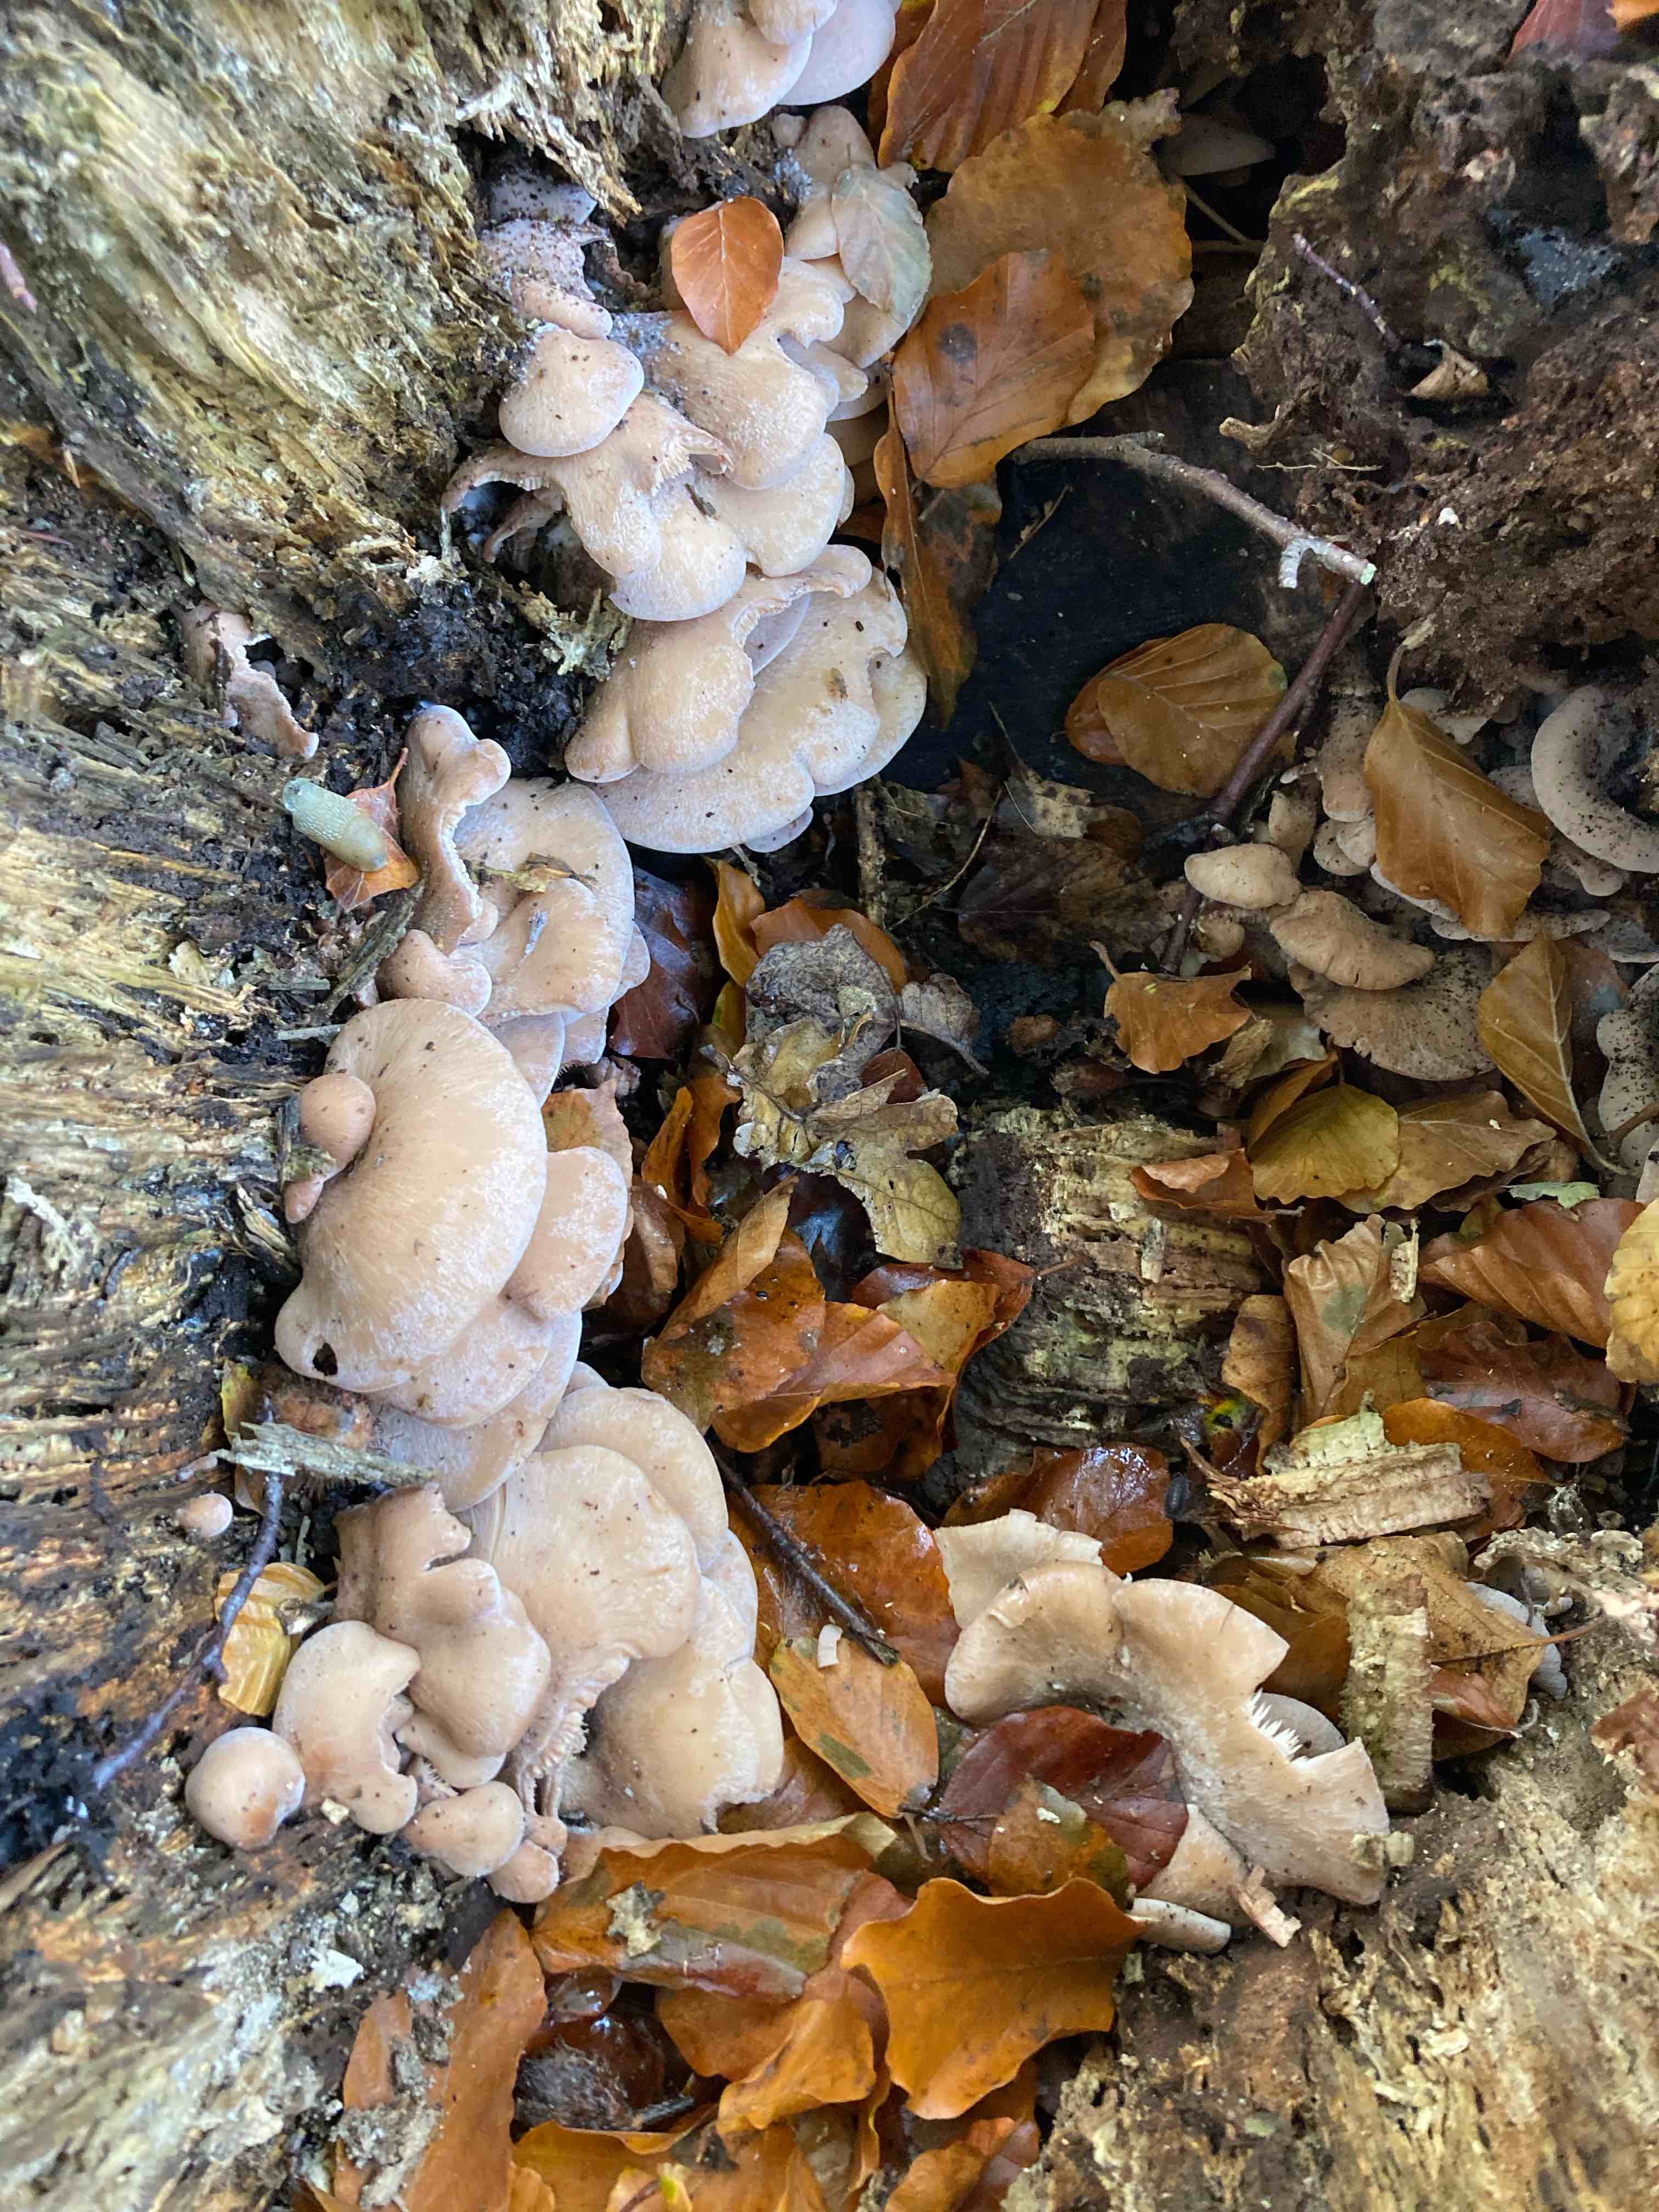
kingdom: Fungi
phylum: Basidiomycota
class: Agaricomycetes
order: Russulales
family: Auriscalpiaceae
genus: Lentinellus
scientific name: Lentinellus ursinus
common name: børstehåret savbladhat
